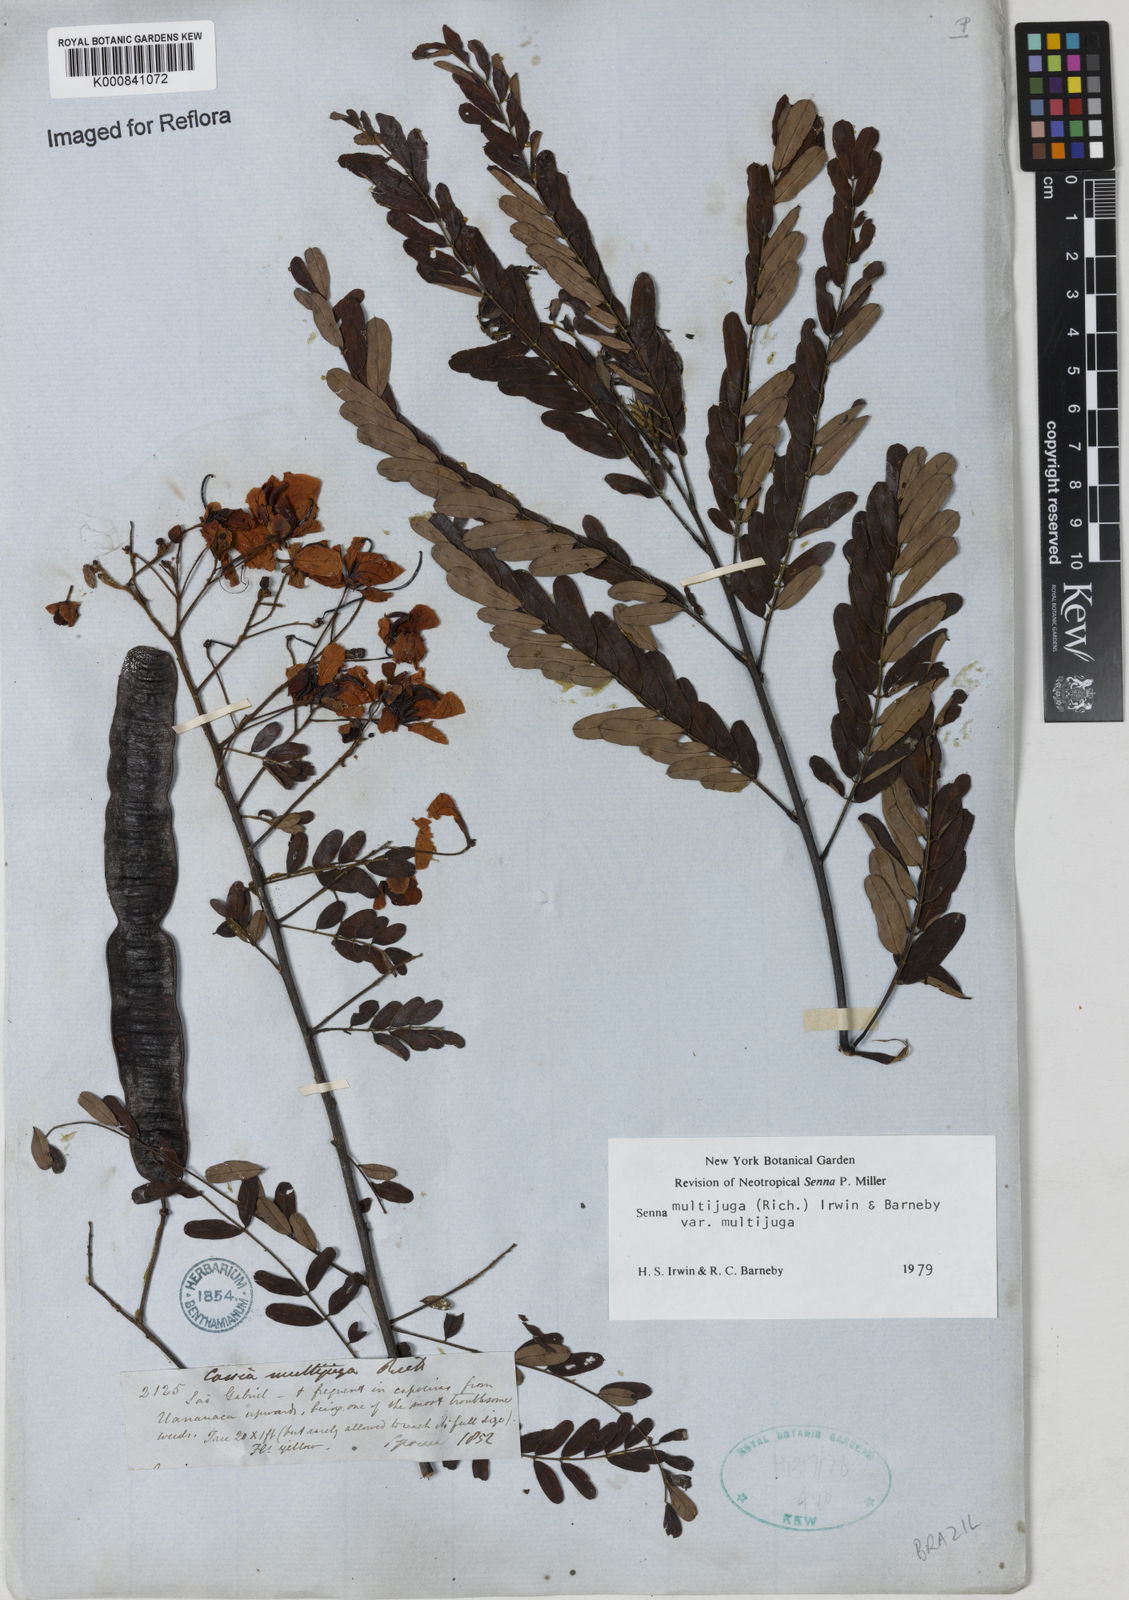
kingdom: Plantae
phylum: Tracheophyta
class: Magnoliopsida
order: Fabales
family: Fabaceae
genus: Senna
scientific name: Senna multijuga
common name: False sicklepod
